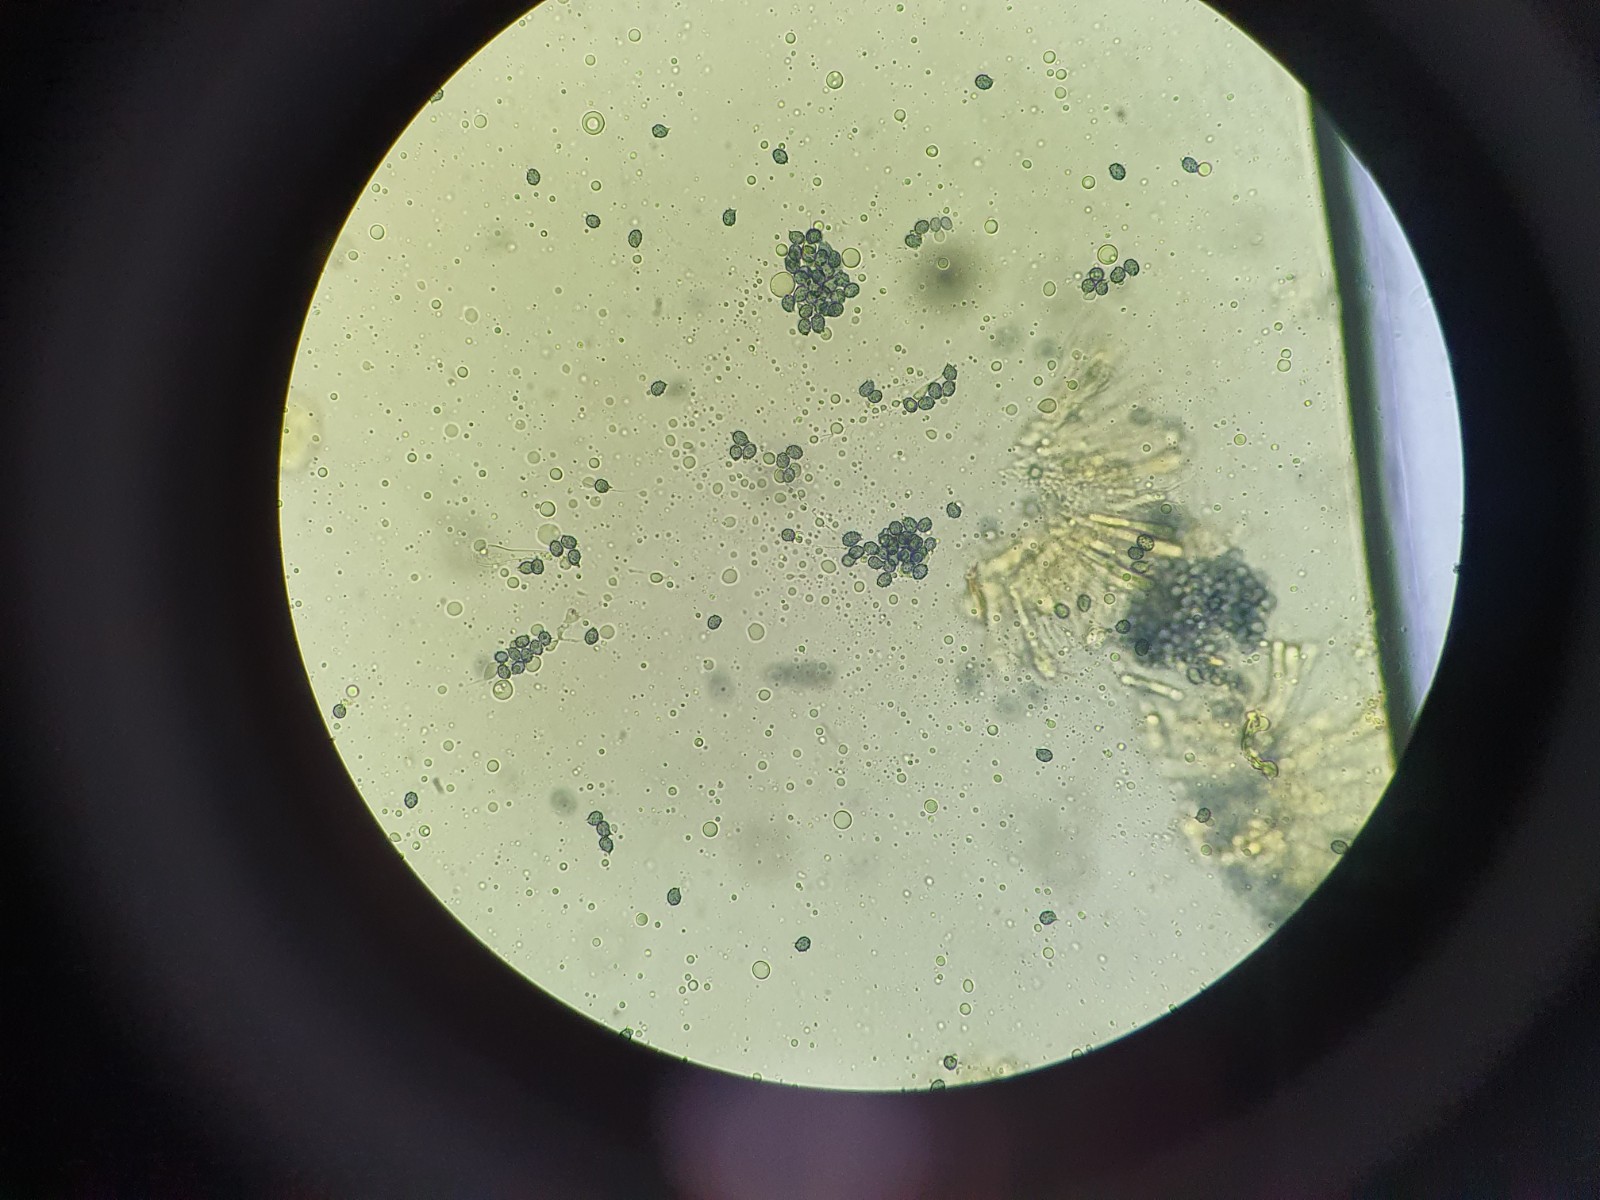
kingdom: Fungi
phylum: Basidiomycota
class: Agaricomycetes
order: Russulales
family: Russulaceae
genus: Russula
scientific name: Russula amoenolens
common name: skarp kam-skørhat
